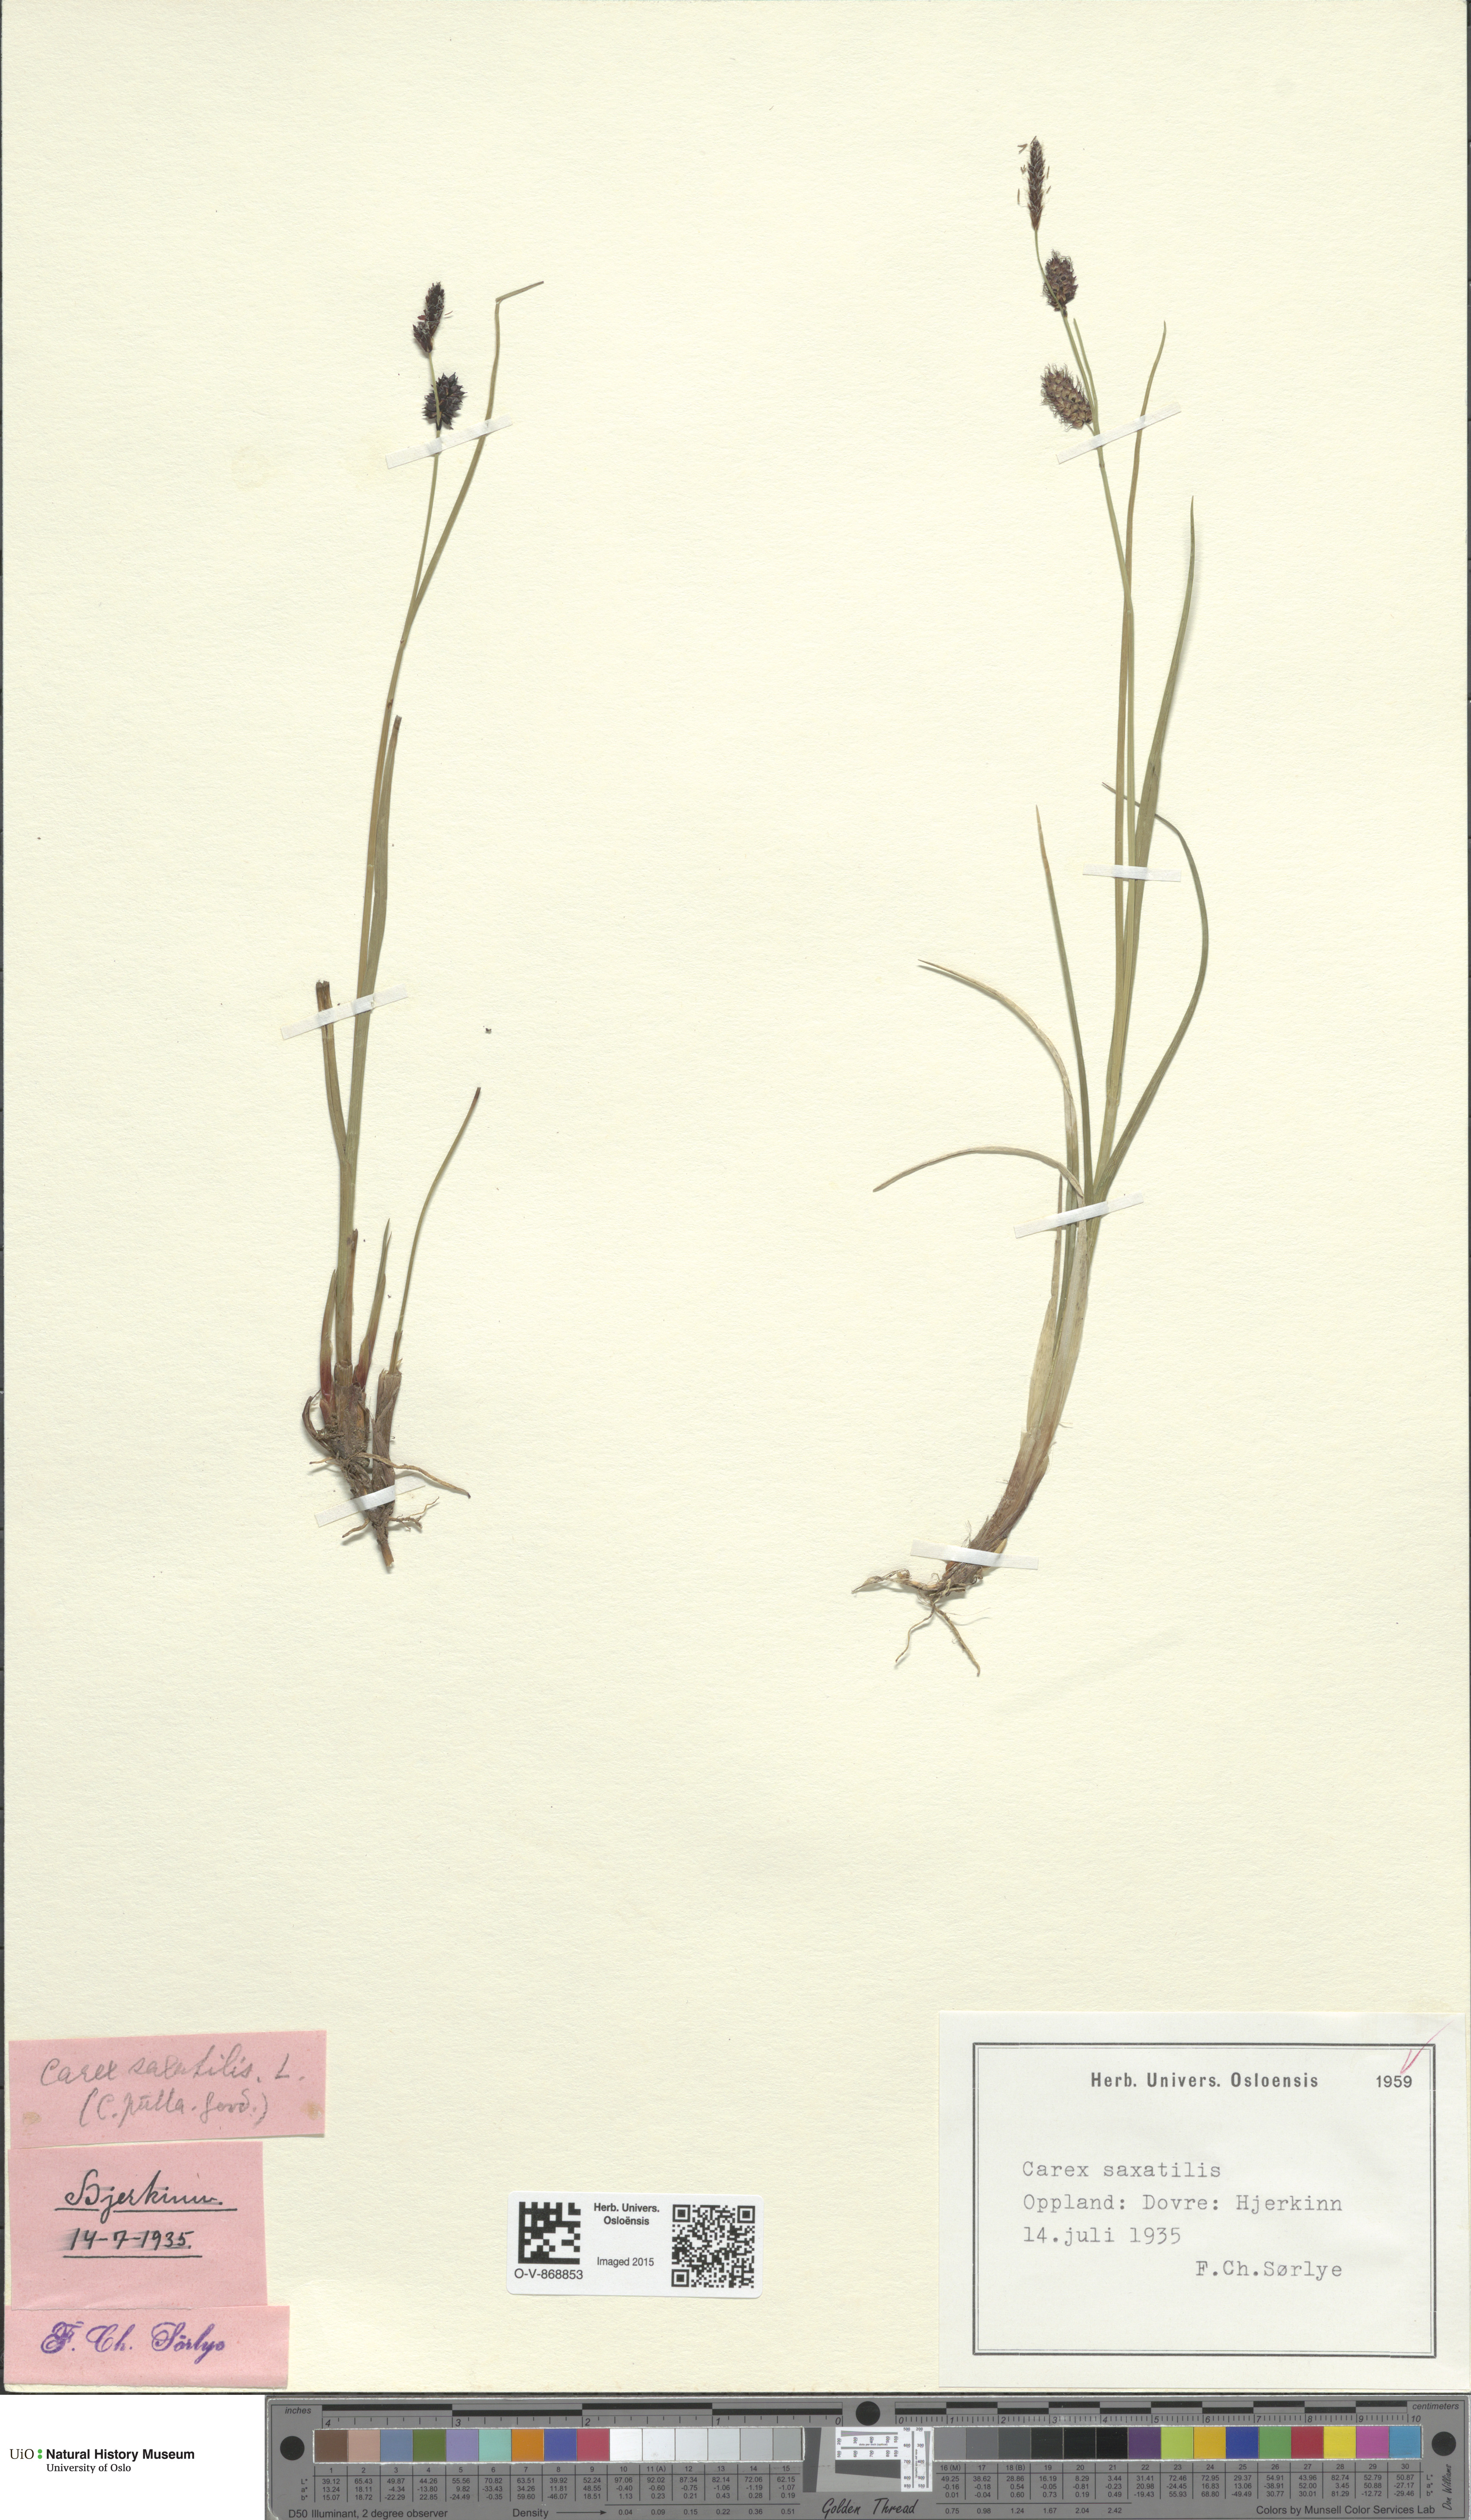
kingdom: Plantae
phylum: Tracheophyta
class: Liliopsida
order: Poales
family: Cyperaceae
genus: Carex
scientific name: Carex saxatilis
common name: Russet sedge
